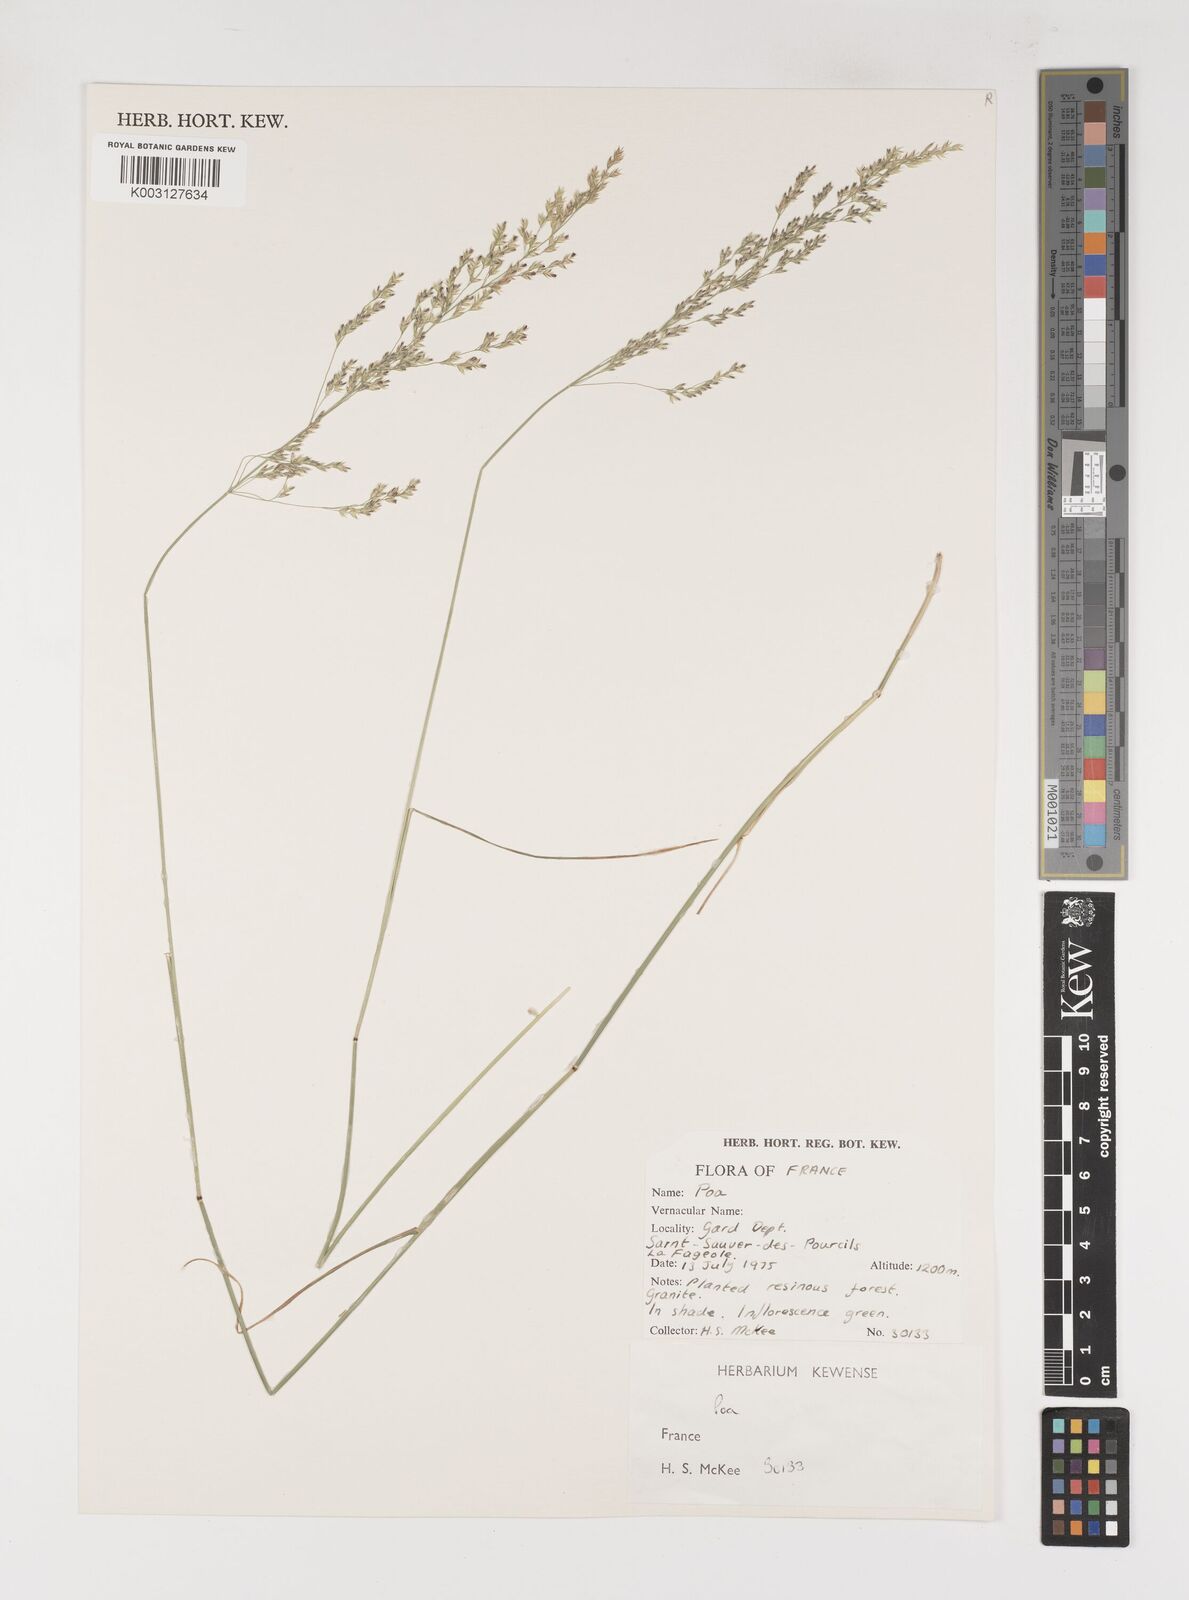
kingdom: Plantae
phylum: Tracheophyta
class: Liliopsida
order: Poales
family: Poaceae
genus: Poa
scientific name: Poa
